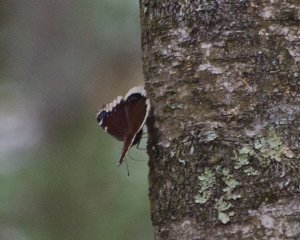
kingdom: Animalia
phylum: Arthropoda
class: Insecta
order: Lepidoptera
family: Nymphalidae
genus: Nymphalis
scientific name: Nymphalis antiopa
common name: Mourning Cloak
